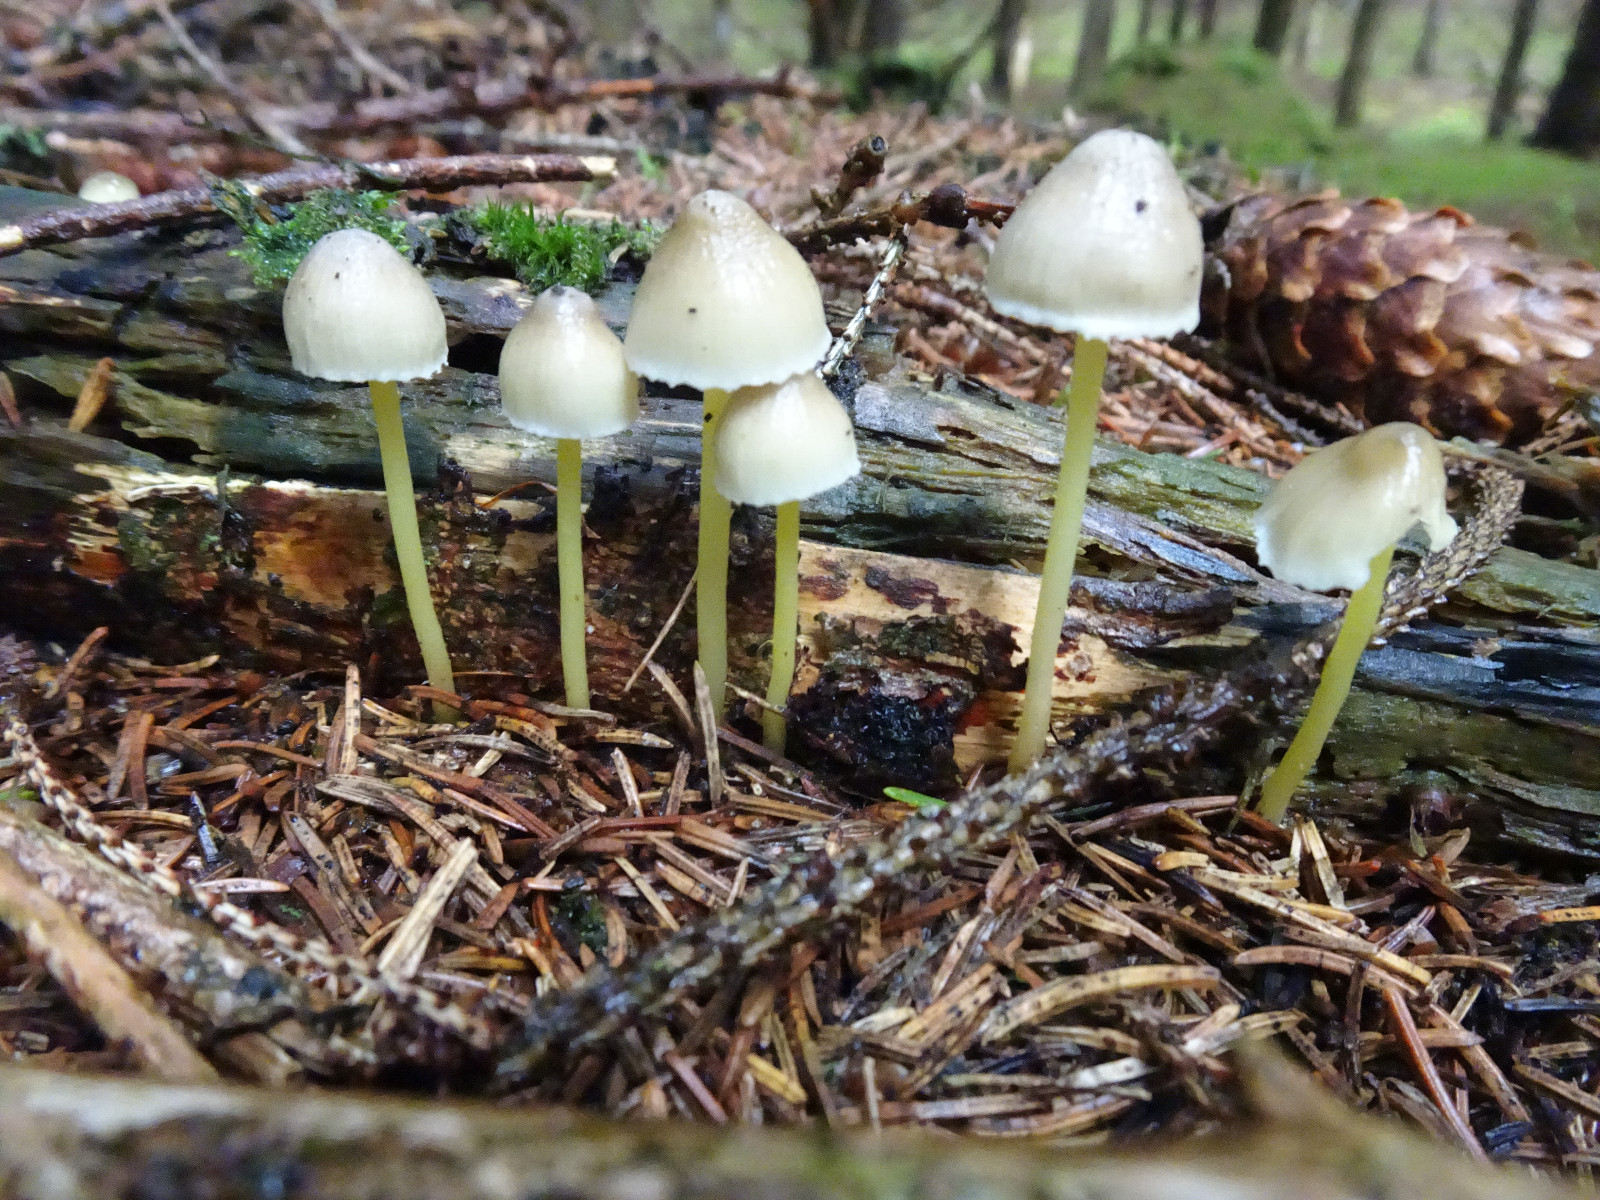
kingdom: Fungi
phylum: Basidiomycota
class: Agaricomycetes
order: Agaricales
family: Mycenaceae
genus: Mycena
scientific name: Mycena epipterygia
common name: gulstokket huesvamp
